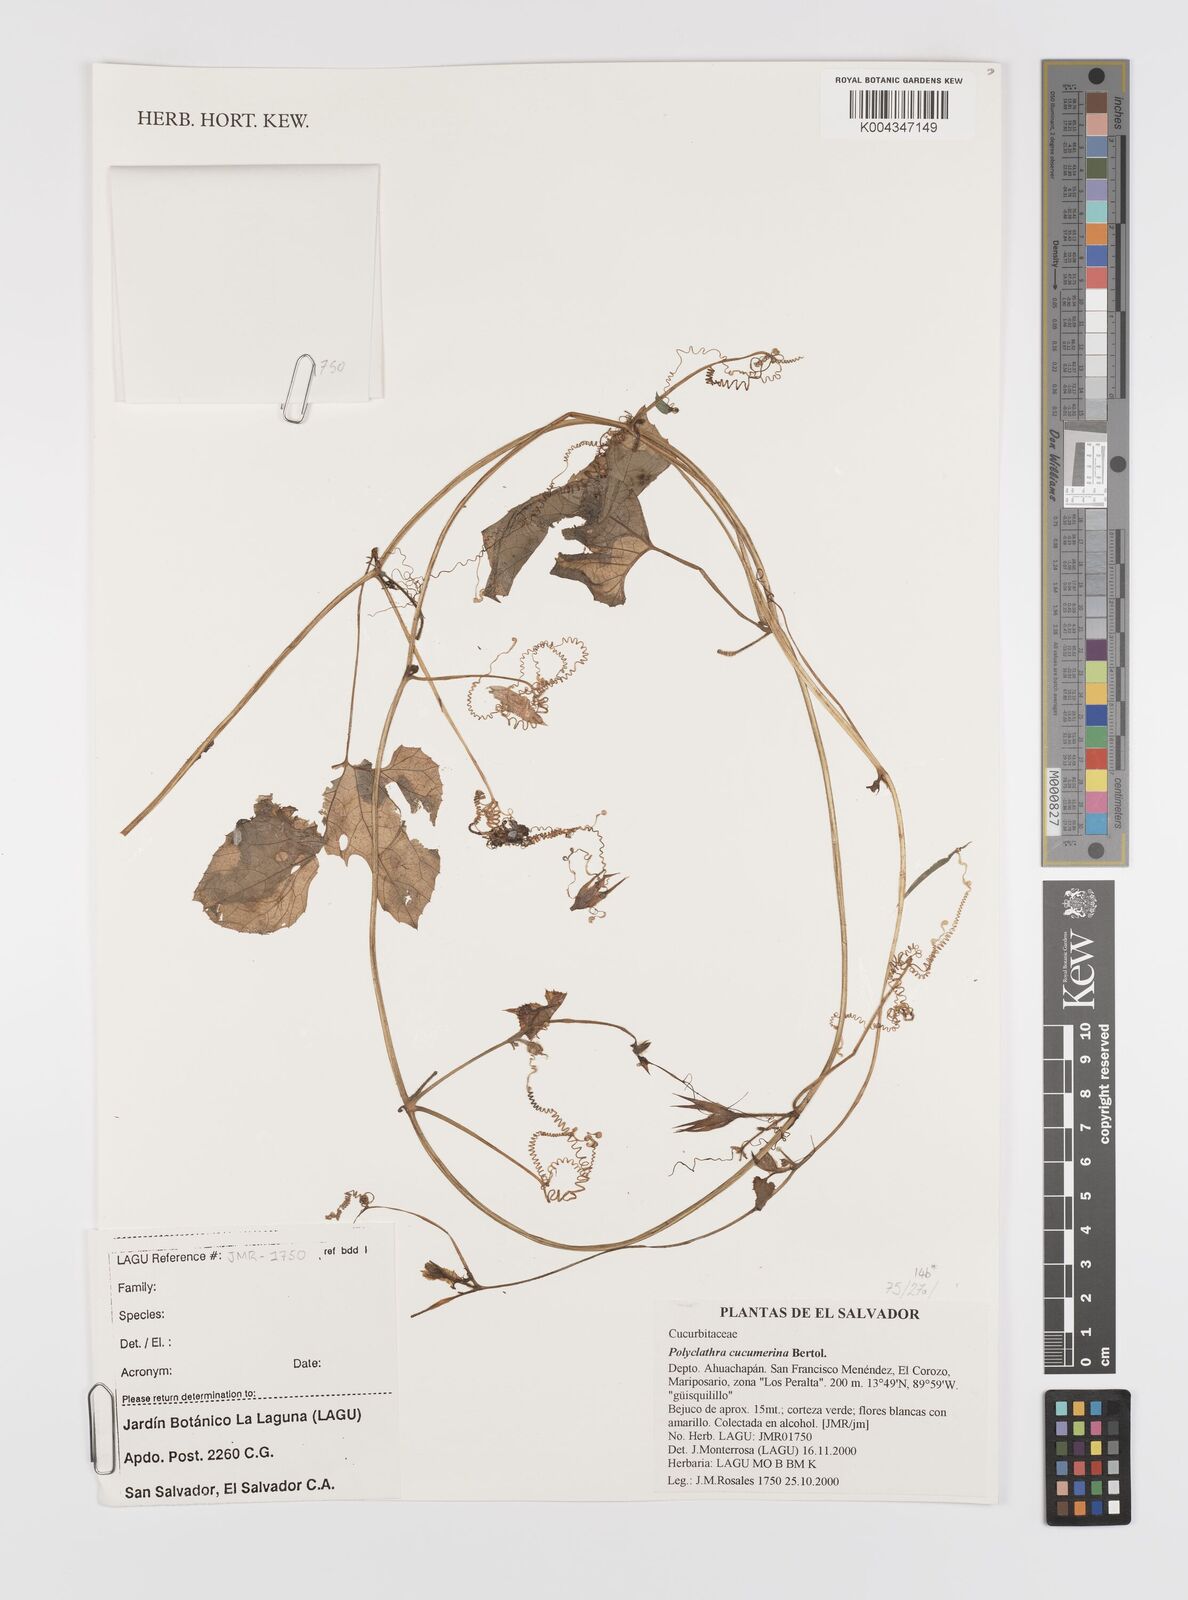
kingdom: Plantae
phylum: Tracheophyta
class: Magnoliopsida
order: Cucurbitales
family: Cucurbitaceae
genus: Polyclathra
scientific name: Polyclathra cucumerina
